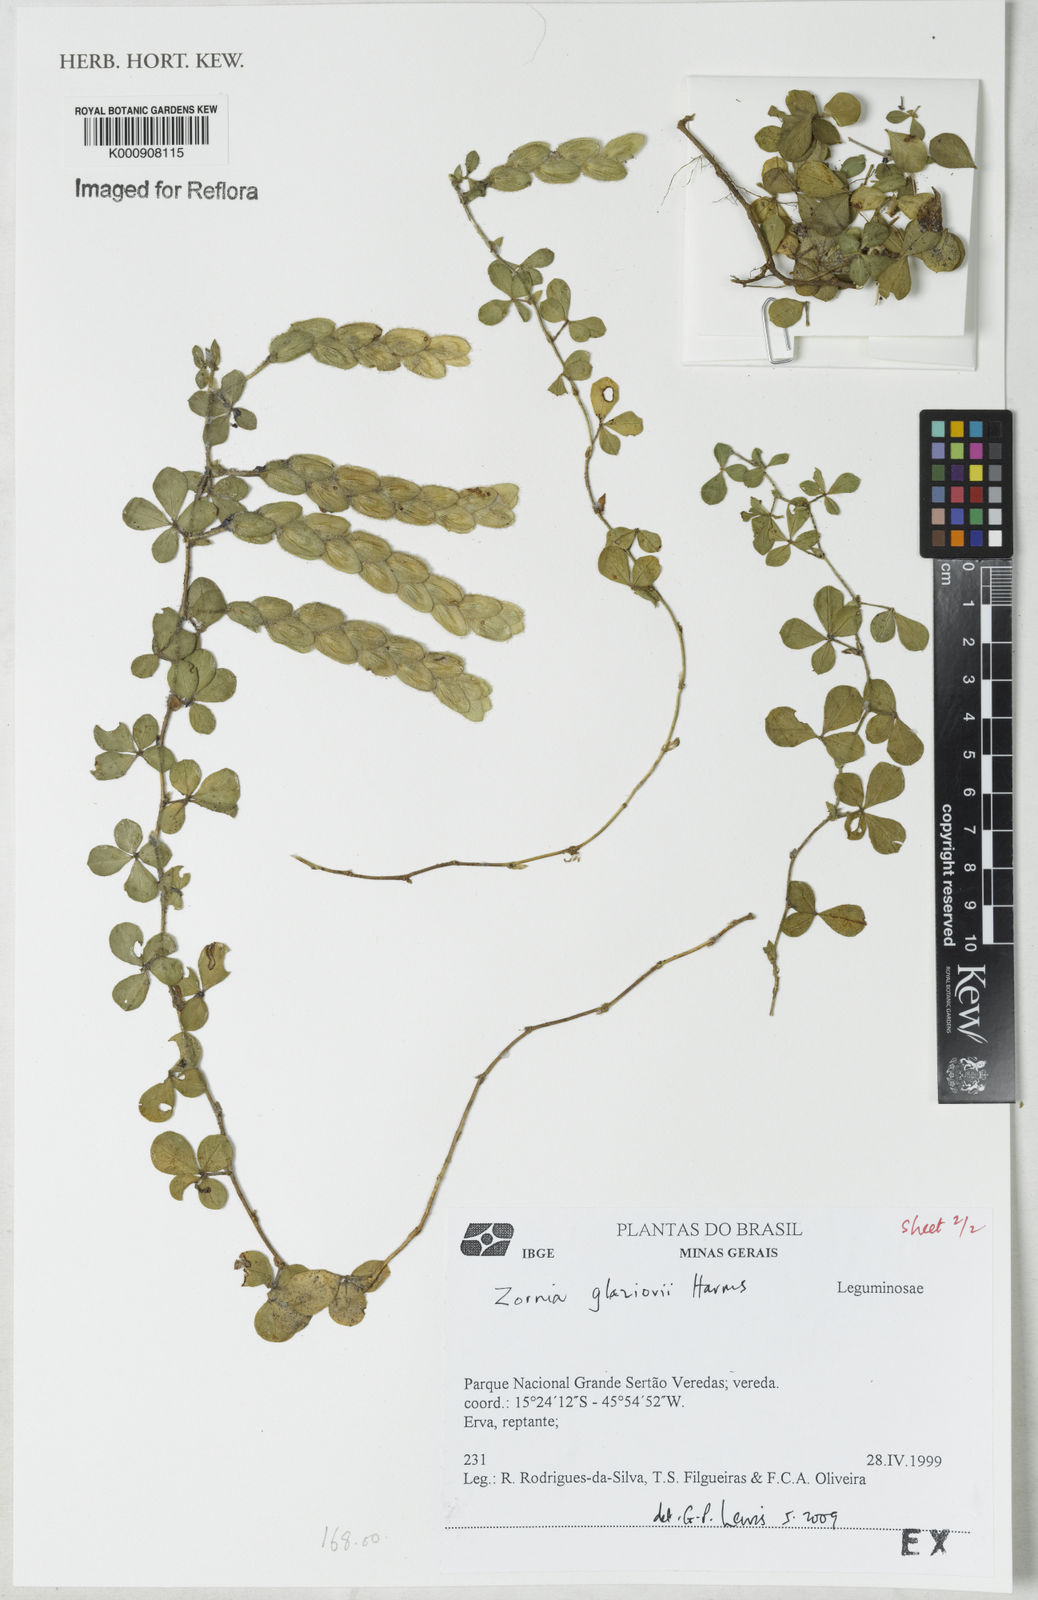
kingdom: Plantae
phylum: Tracheophyta
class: Magnoliopsida
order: Fabales
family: Fabaceae
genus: Zornia
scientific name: Zornia glaziovii
